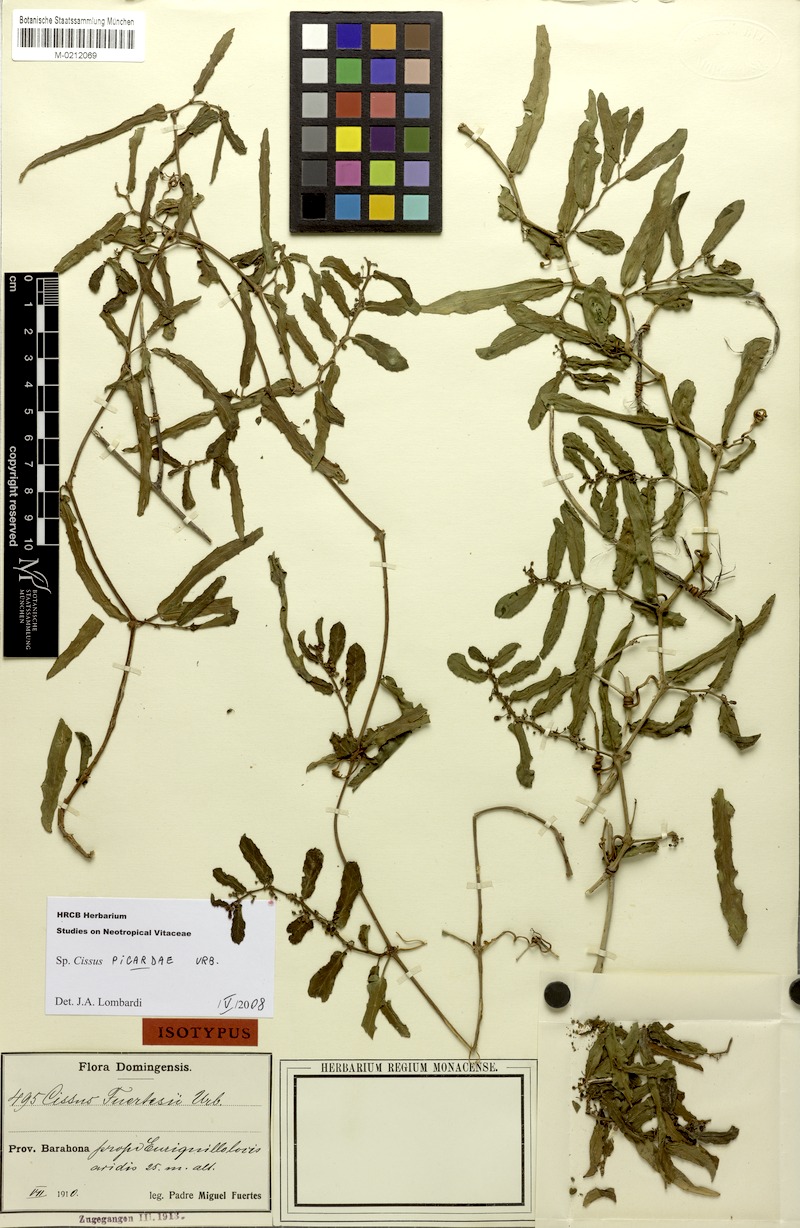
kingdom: Plantae
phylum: Tracheophyta
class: Magnoliopsida
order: Vitales
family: Vitaceae
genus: Cissus
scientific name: Cissus picardae
